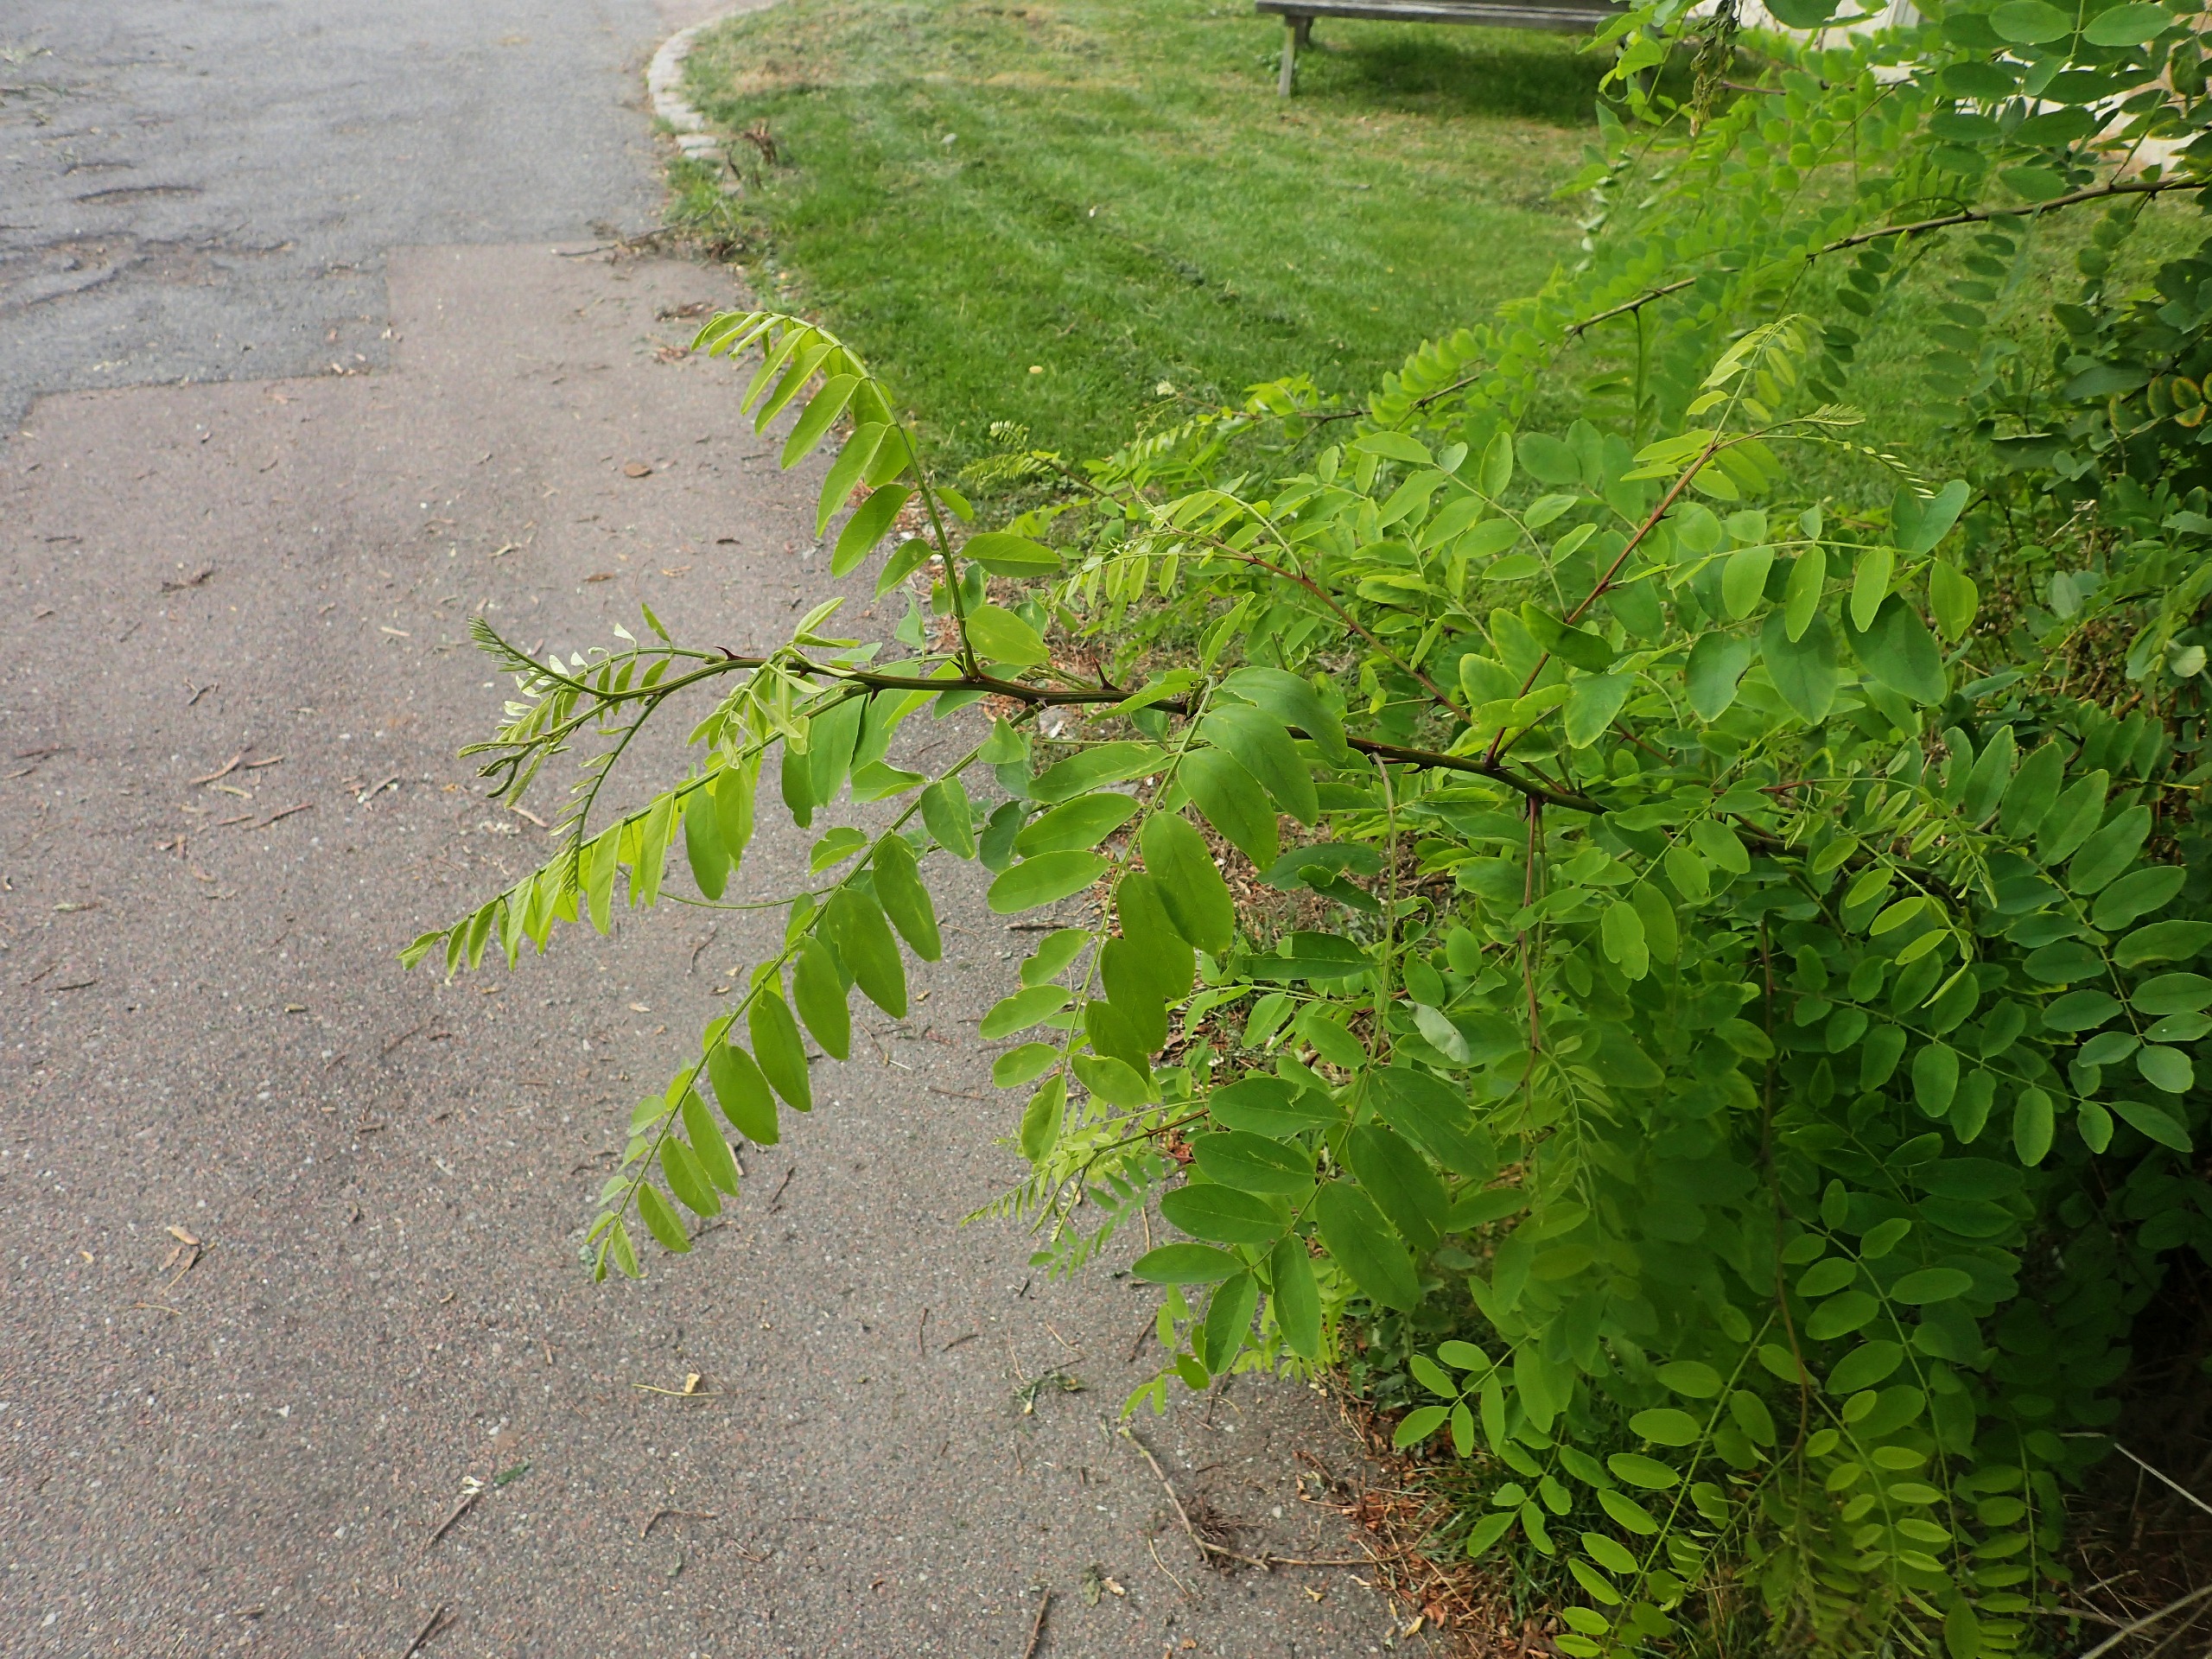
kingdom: Plantae
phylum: Tracheophyta
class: Magnoliopsida
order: Fabales
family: Fabaceae
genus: Robinia
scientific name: Robinia pseudoacacia
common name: Robinie
